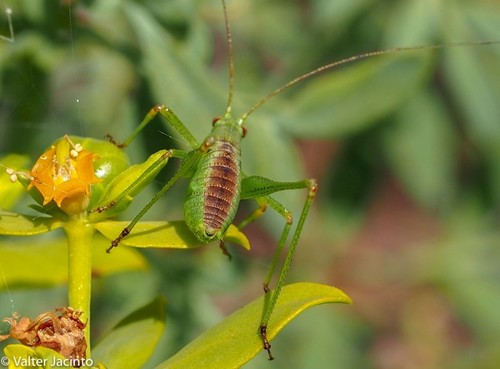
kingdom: Animalia
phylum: Arthropoda
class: Insecta
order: Orthoptera
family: Tettigoniidae
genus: Phaneroptera
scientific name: Phaneroptera nana
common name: Southern sickle bush-cricket
